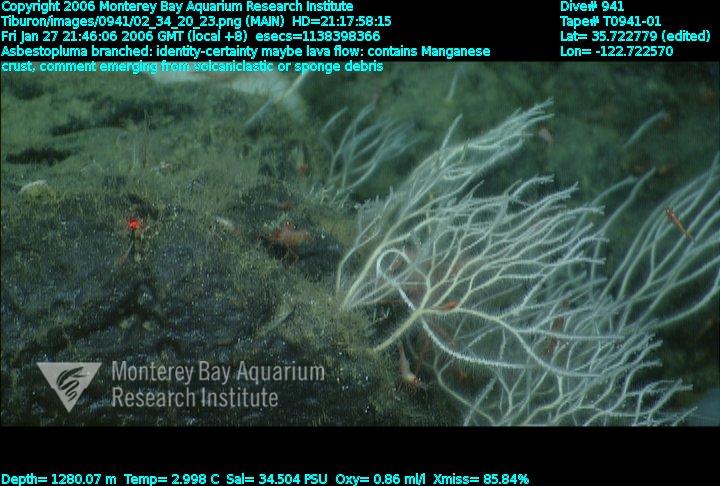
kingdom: Animalia
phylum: Porifera
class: Demospongiae
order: Poecilosclerida
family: Cladorhizidae
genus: Asbestopluma
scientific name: Asbestopluma monticola
